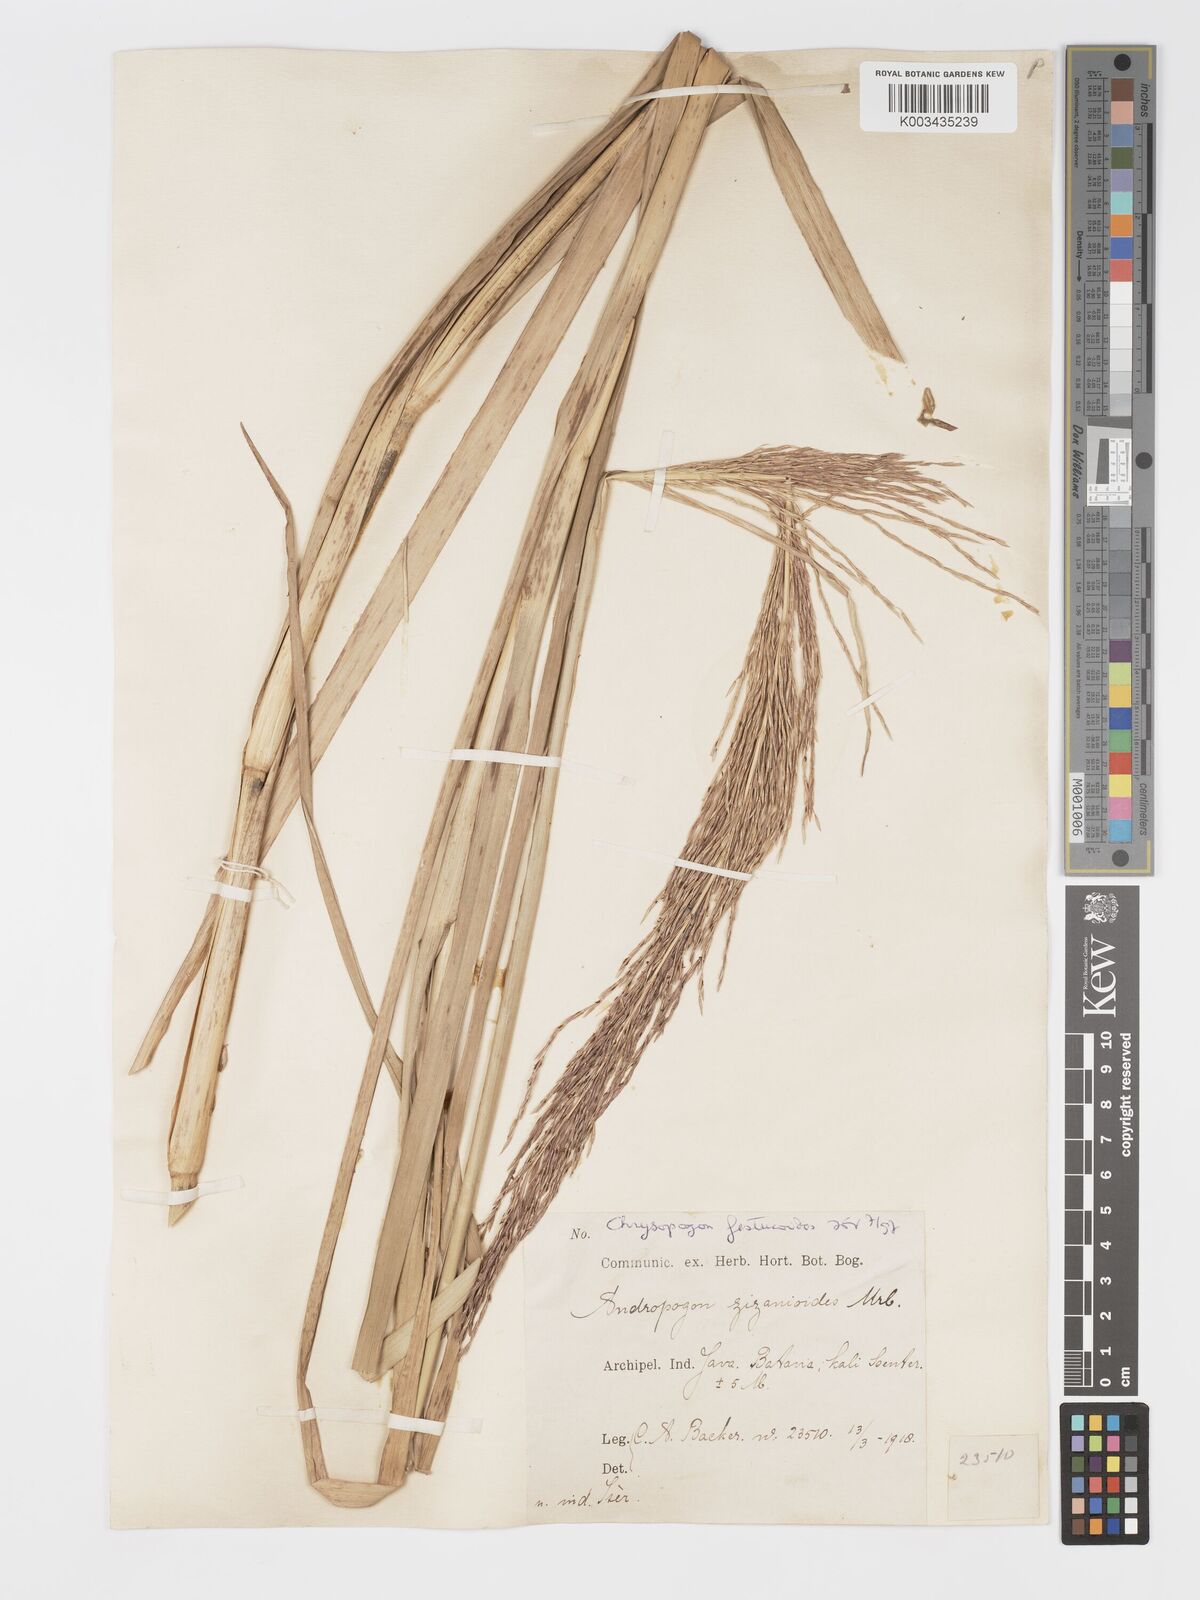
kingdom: Plantae
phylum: Tracheophyta
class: Liliopsida
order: Poales
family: Poaceae
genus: Chrysopogon
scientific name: Chrysopogon festucoides
